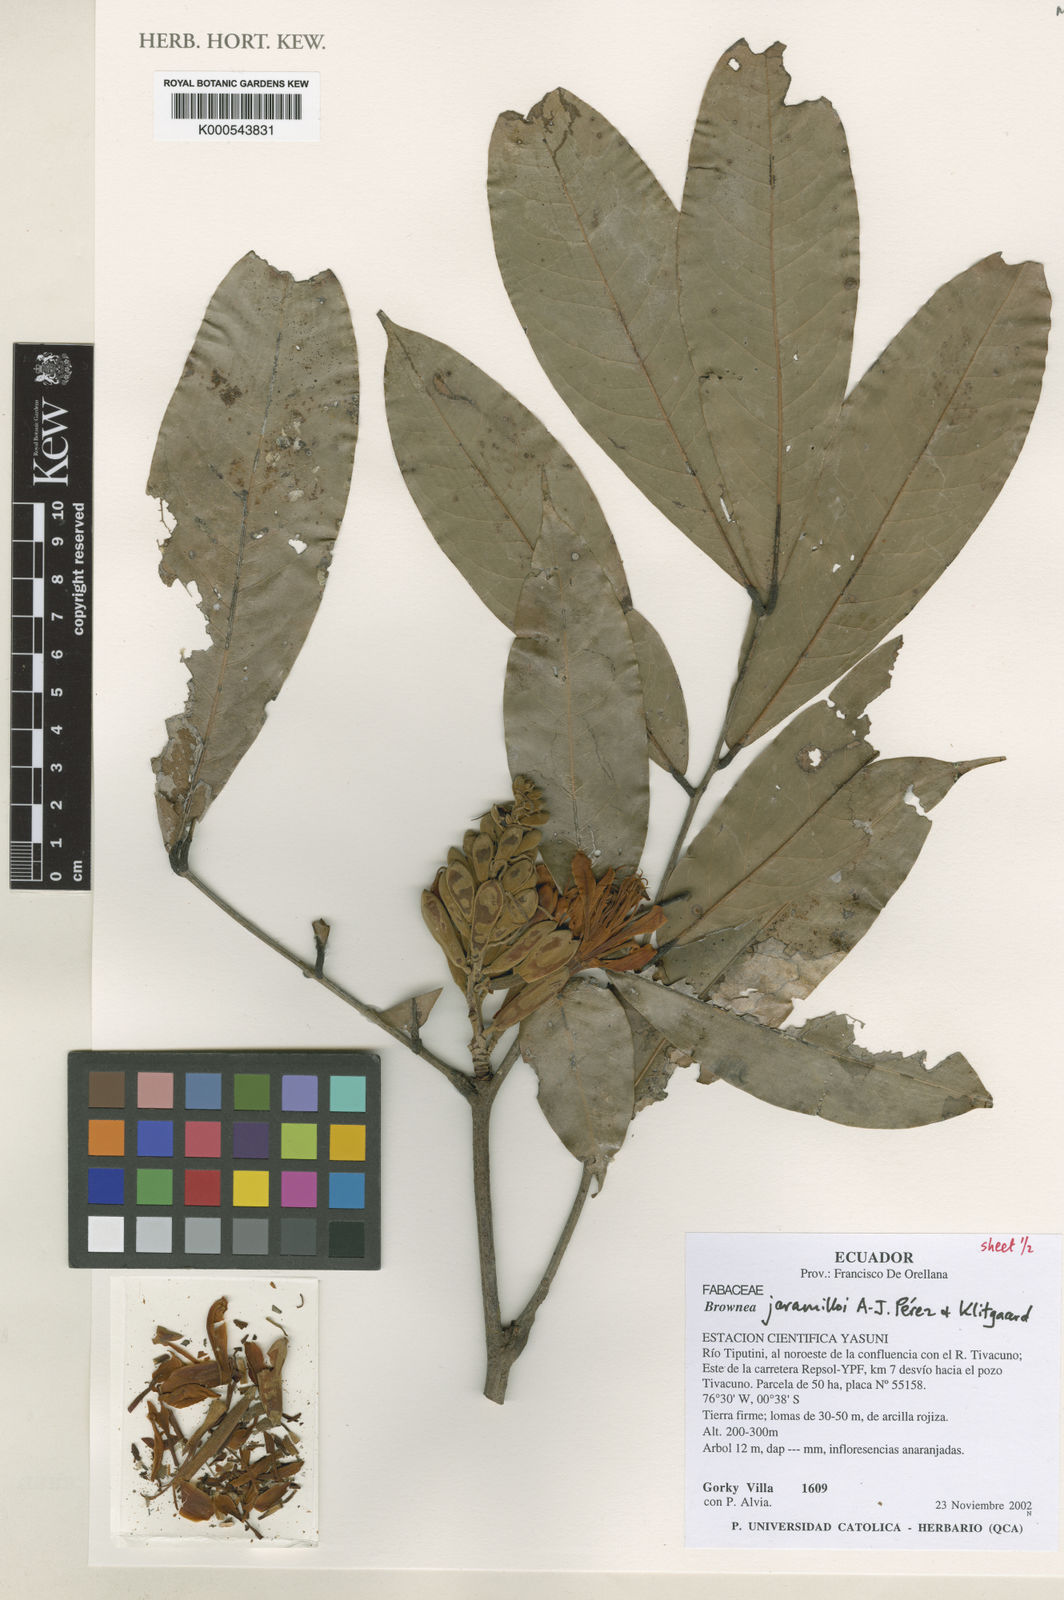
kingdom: Plantae
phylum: Tracheophyta
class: Magnoliopsida
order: Fabales
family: Fabaceae
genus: Brownea
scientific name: Brownea
